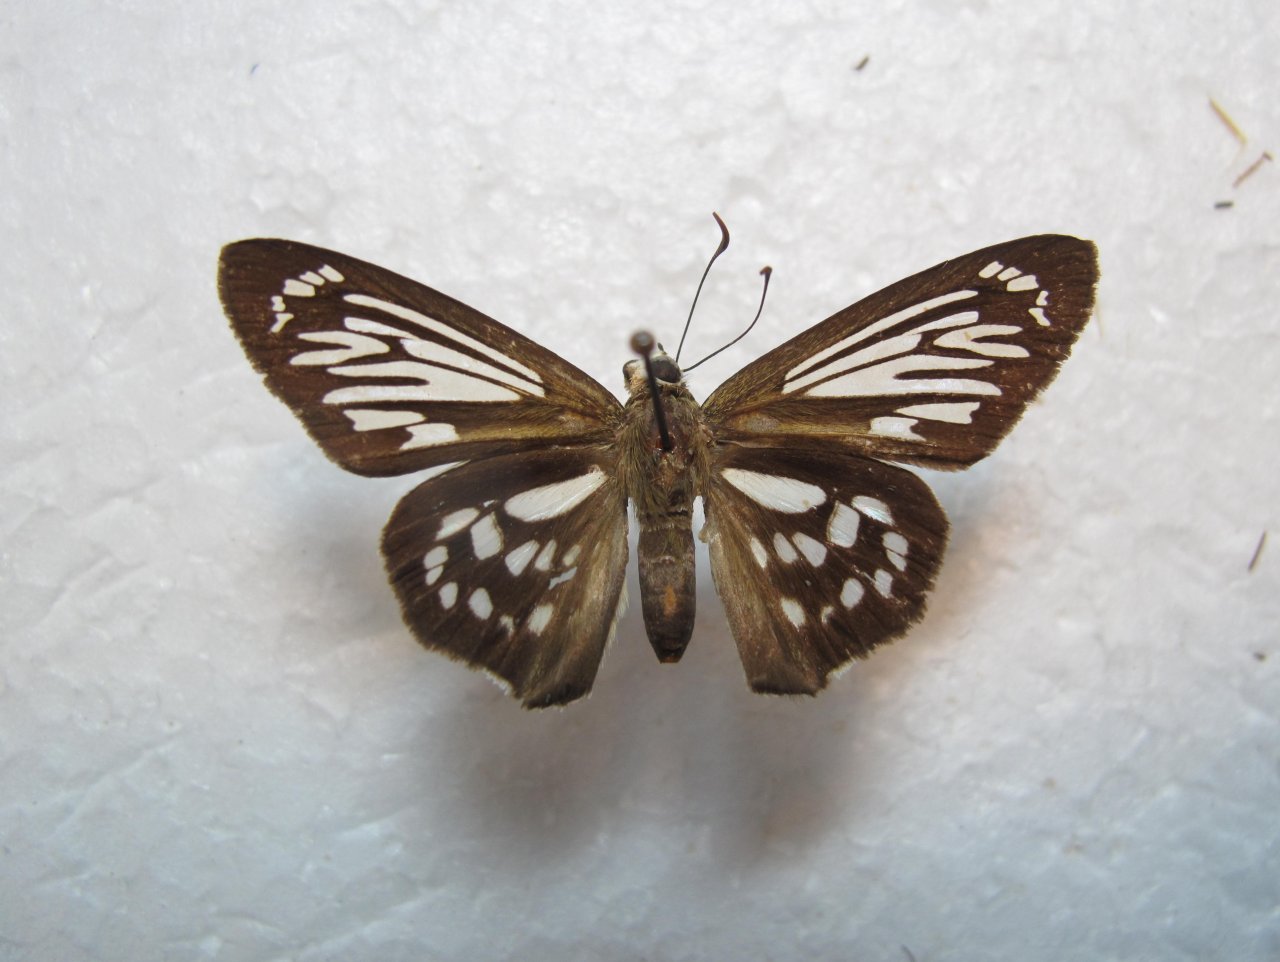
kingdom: Animalia
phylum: Arthropoda
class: Insecta
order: Lepidoptera
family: Hesperiidae
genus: Phanus
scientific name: Phanus marshallii
